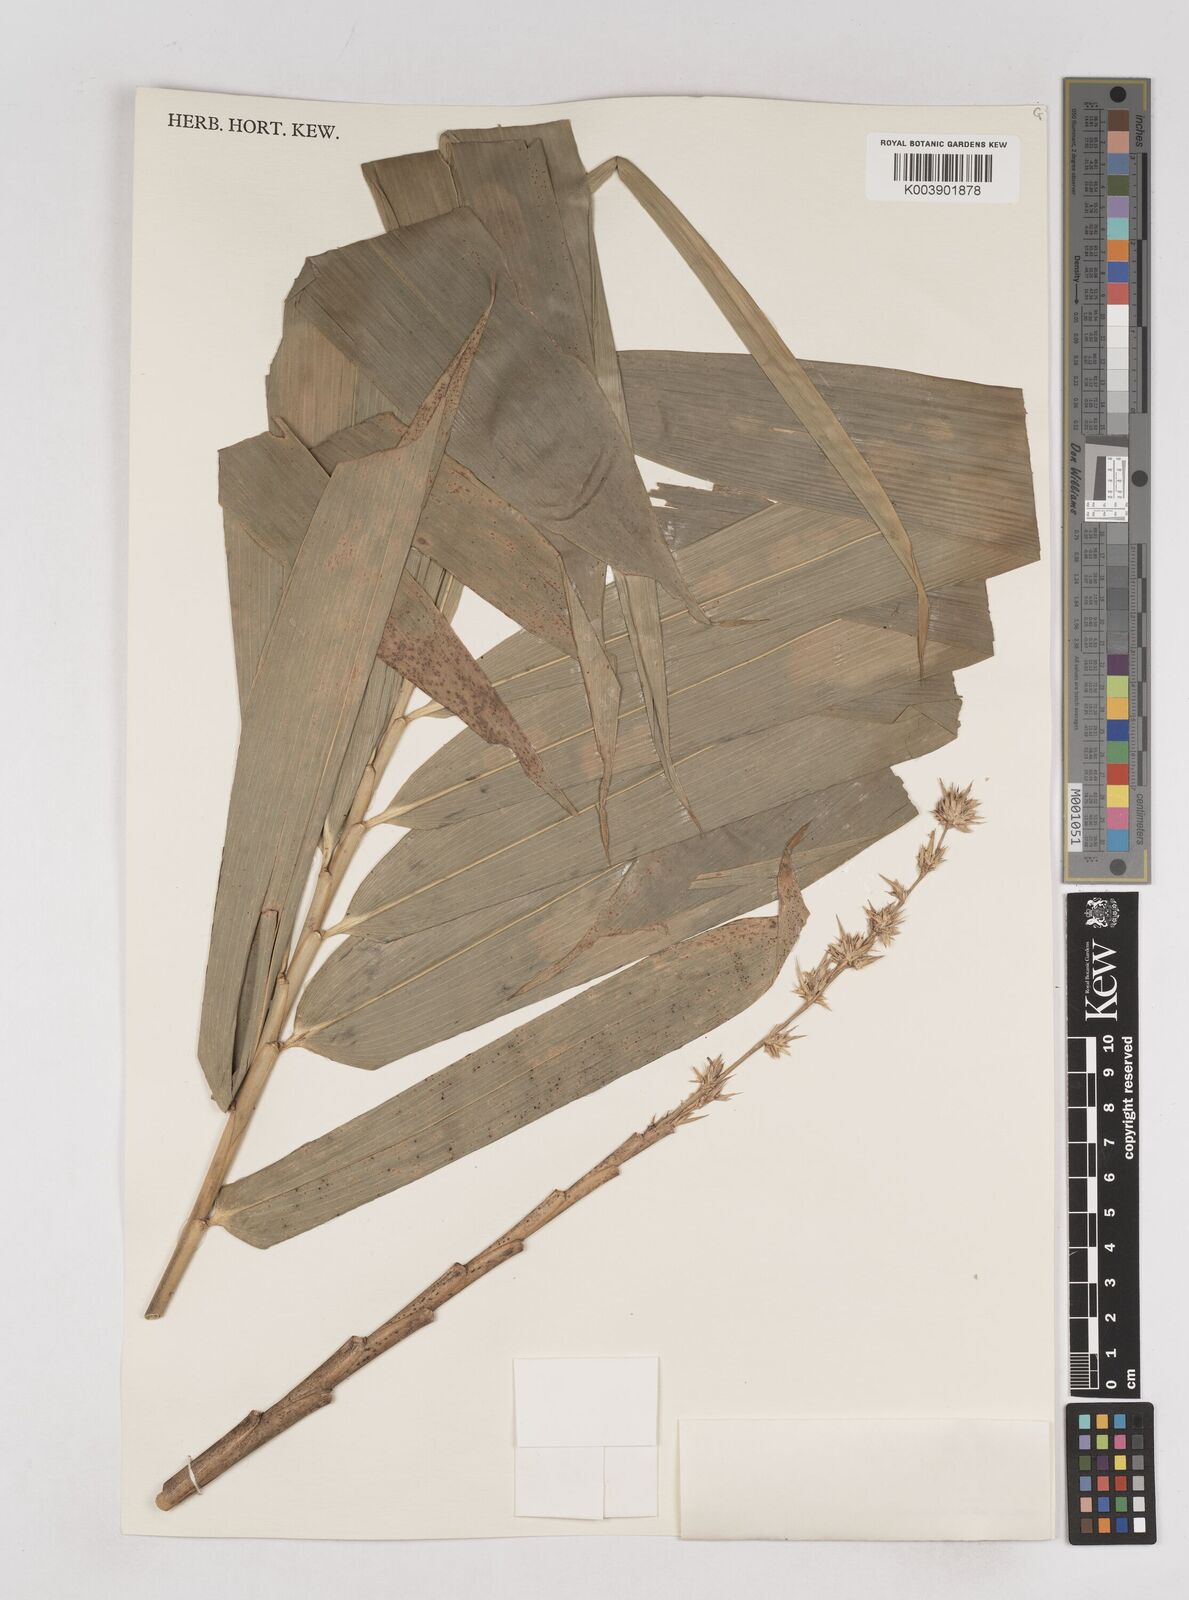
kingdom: Plantae
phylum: Tracheophyta
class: Liliopsida
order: Poales
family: Poaceae
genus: Schizostachyum
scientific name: Schizostachyum brachycladum
